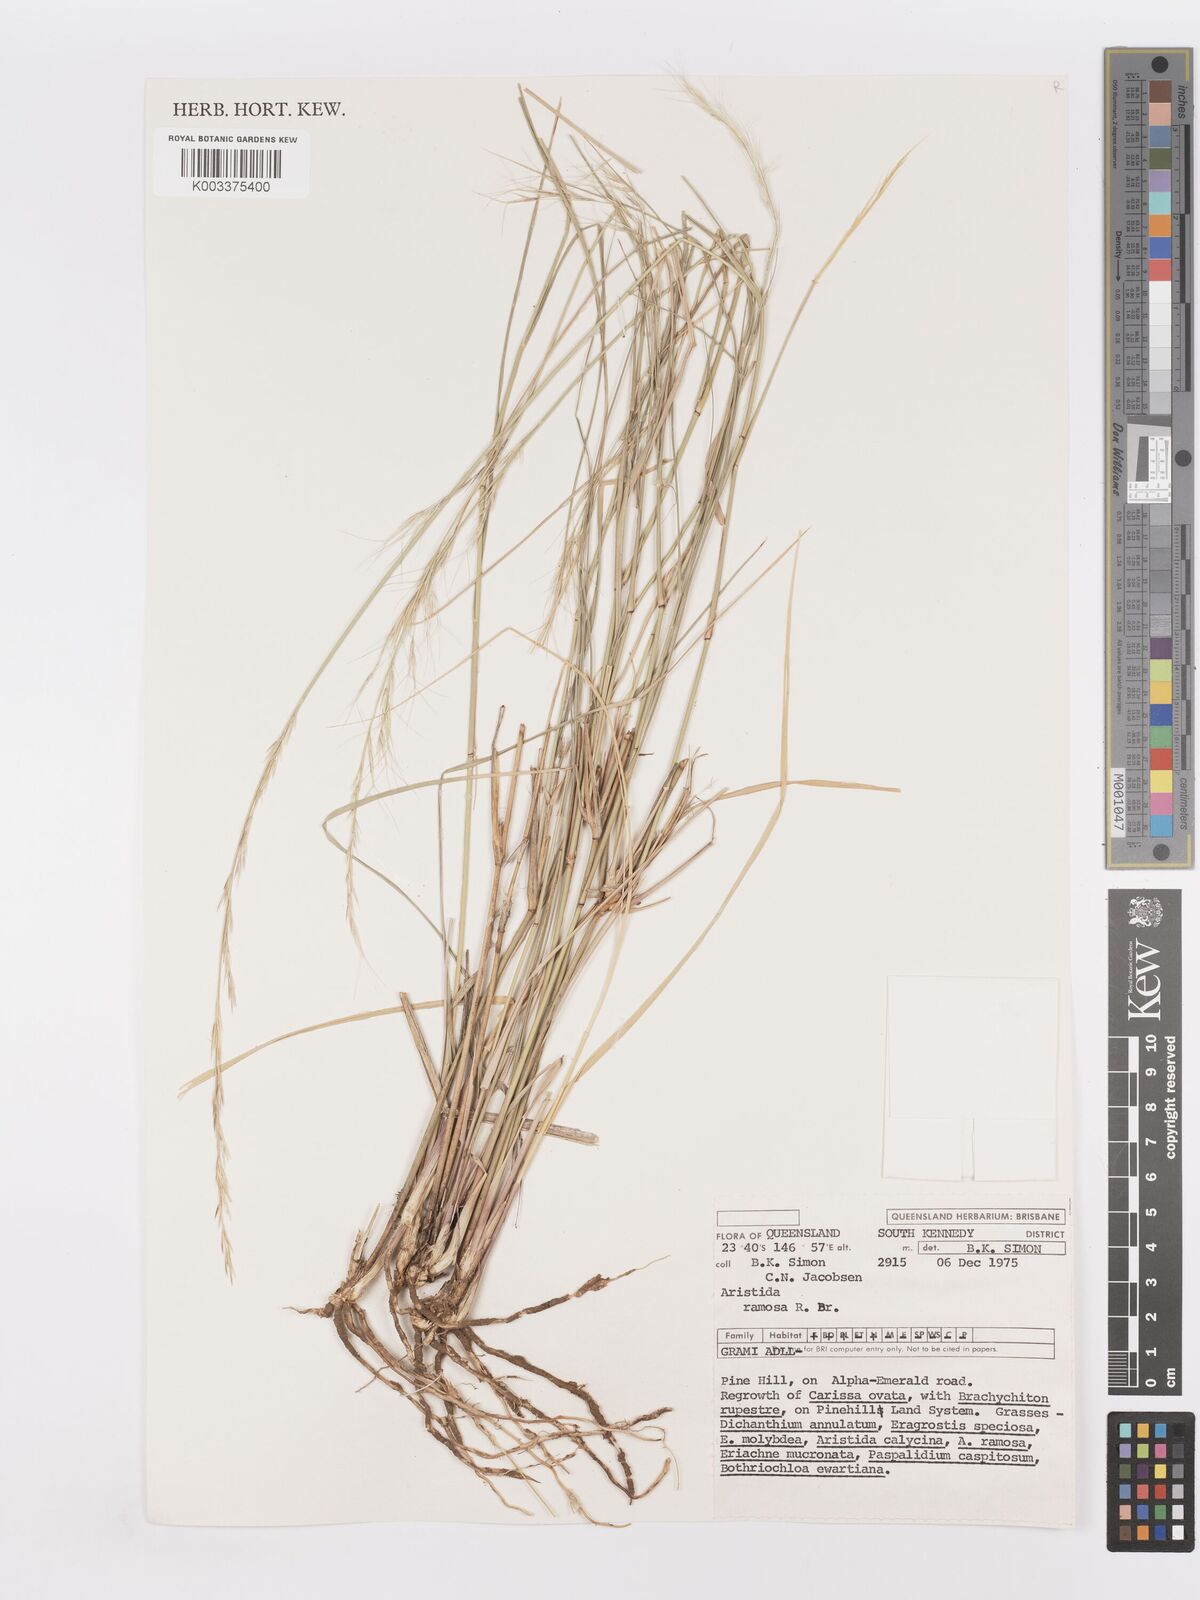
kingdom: Plantae
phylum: Tracheophyta
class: Liliopsida
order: Poales
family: Poaceae
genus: Aristida
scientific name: Aristida ramosa
